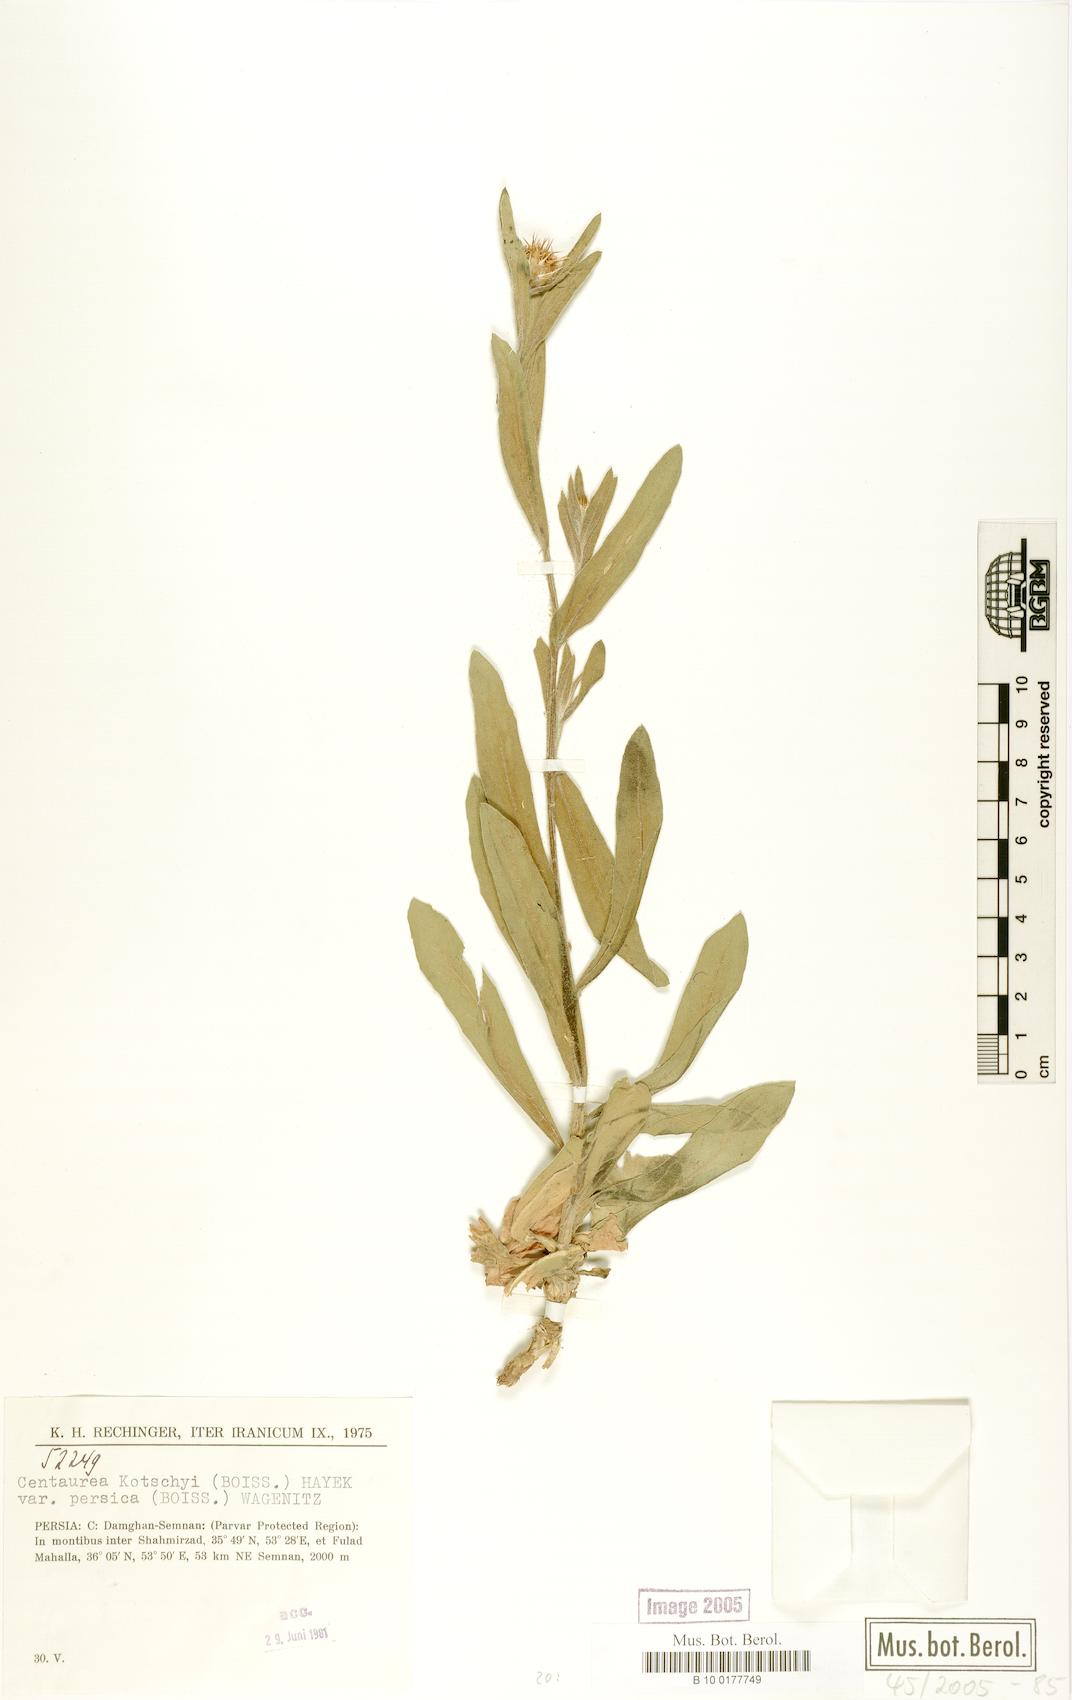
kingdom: Plantae
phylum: Tracheophyta
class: Magnoliopsida
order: Asterales
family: Asteraceae
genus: Centaurea
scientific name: Centaurea kotschyi
